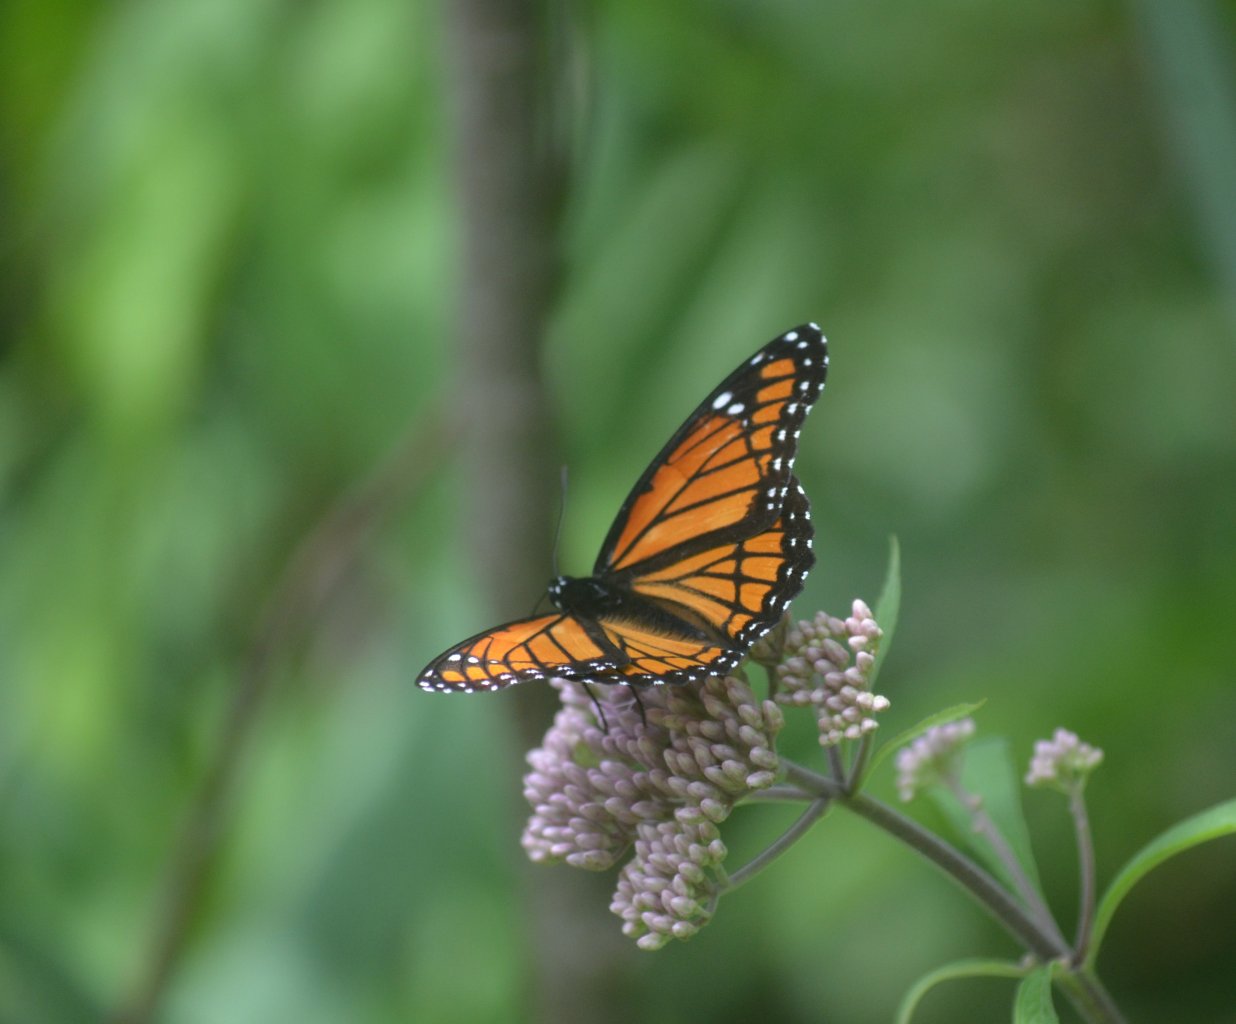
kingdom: Animalia
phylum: Arthropoda
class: Insecta
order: Lepidoptera
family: Nymphalidae
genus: Limenitis
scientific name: Limenitis archippus
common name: Viceroy
